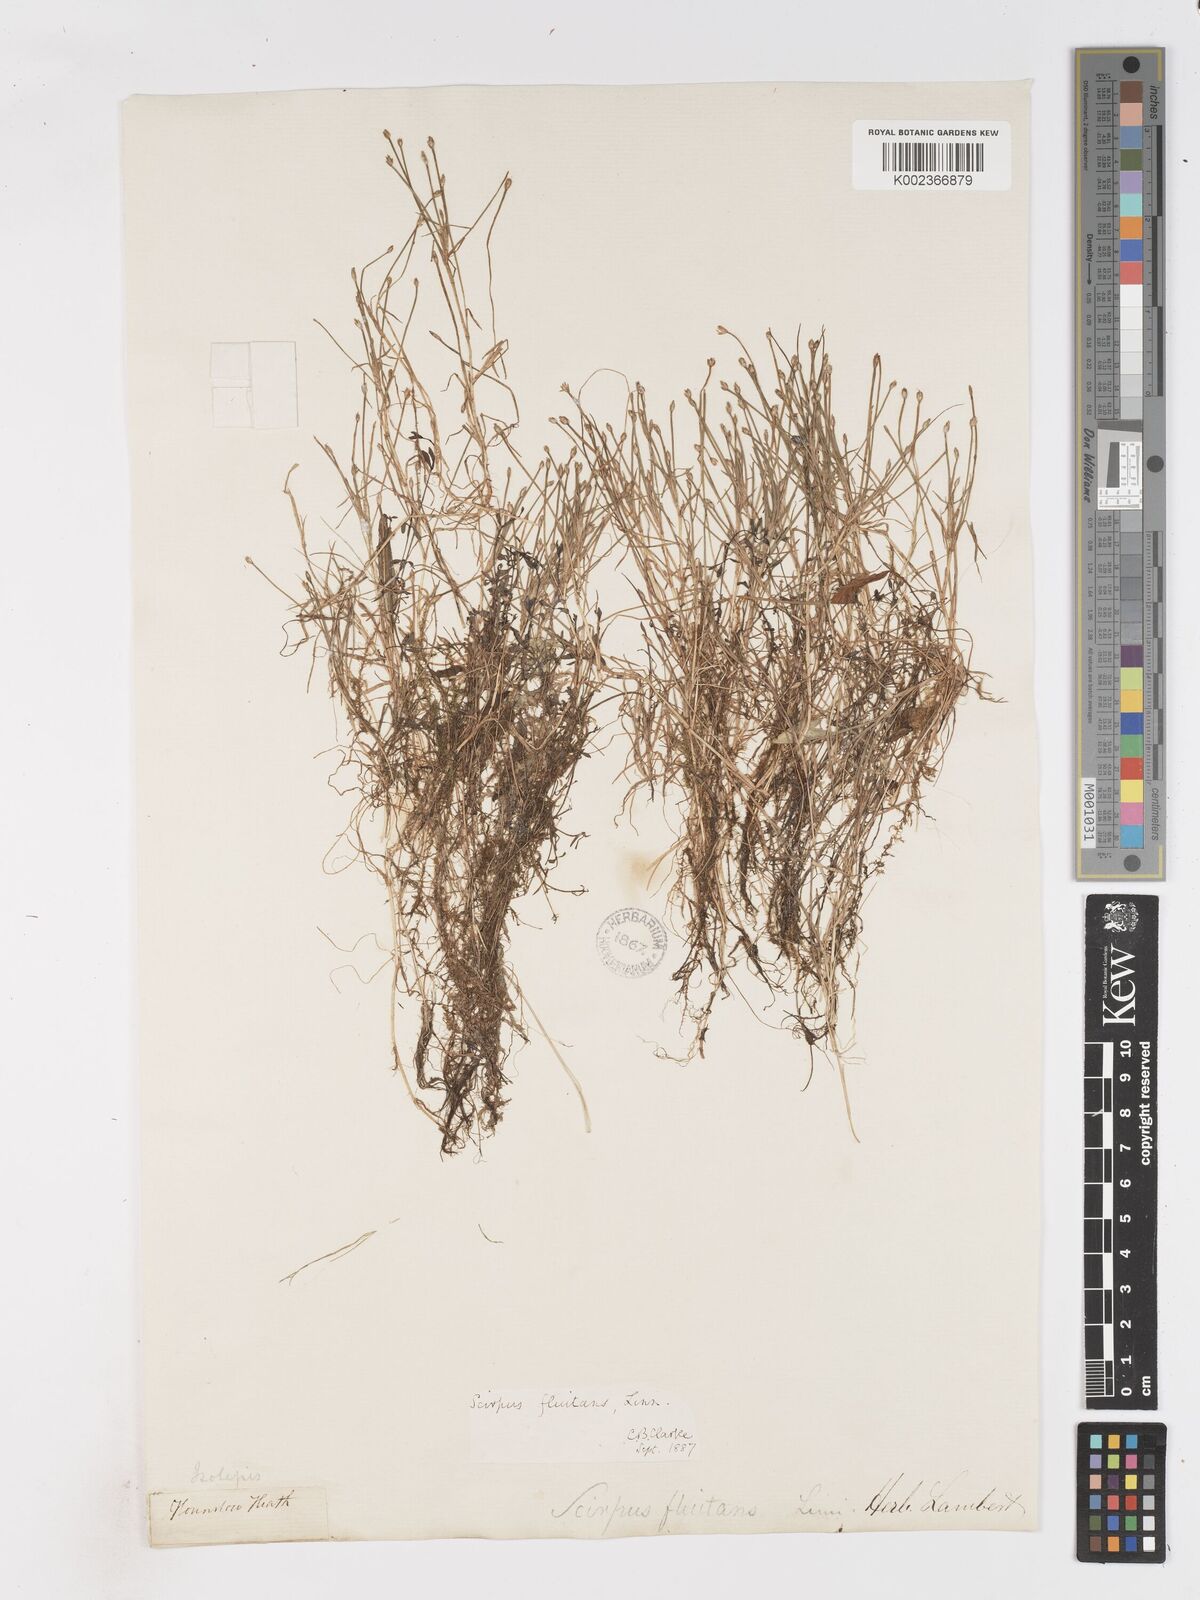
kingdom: Plantae
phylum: Tracheophyta
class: Liliopsida
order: Poales
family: Cyperaceae
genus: Isolepis
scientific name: Isolepis fluitans
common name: Floating club-rush
